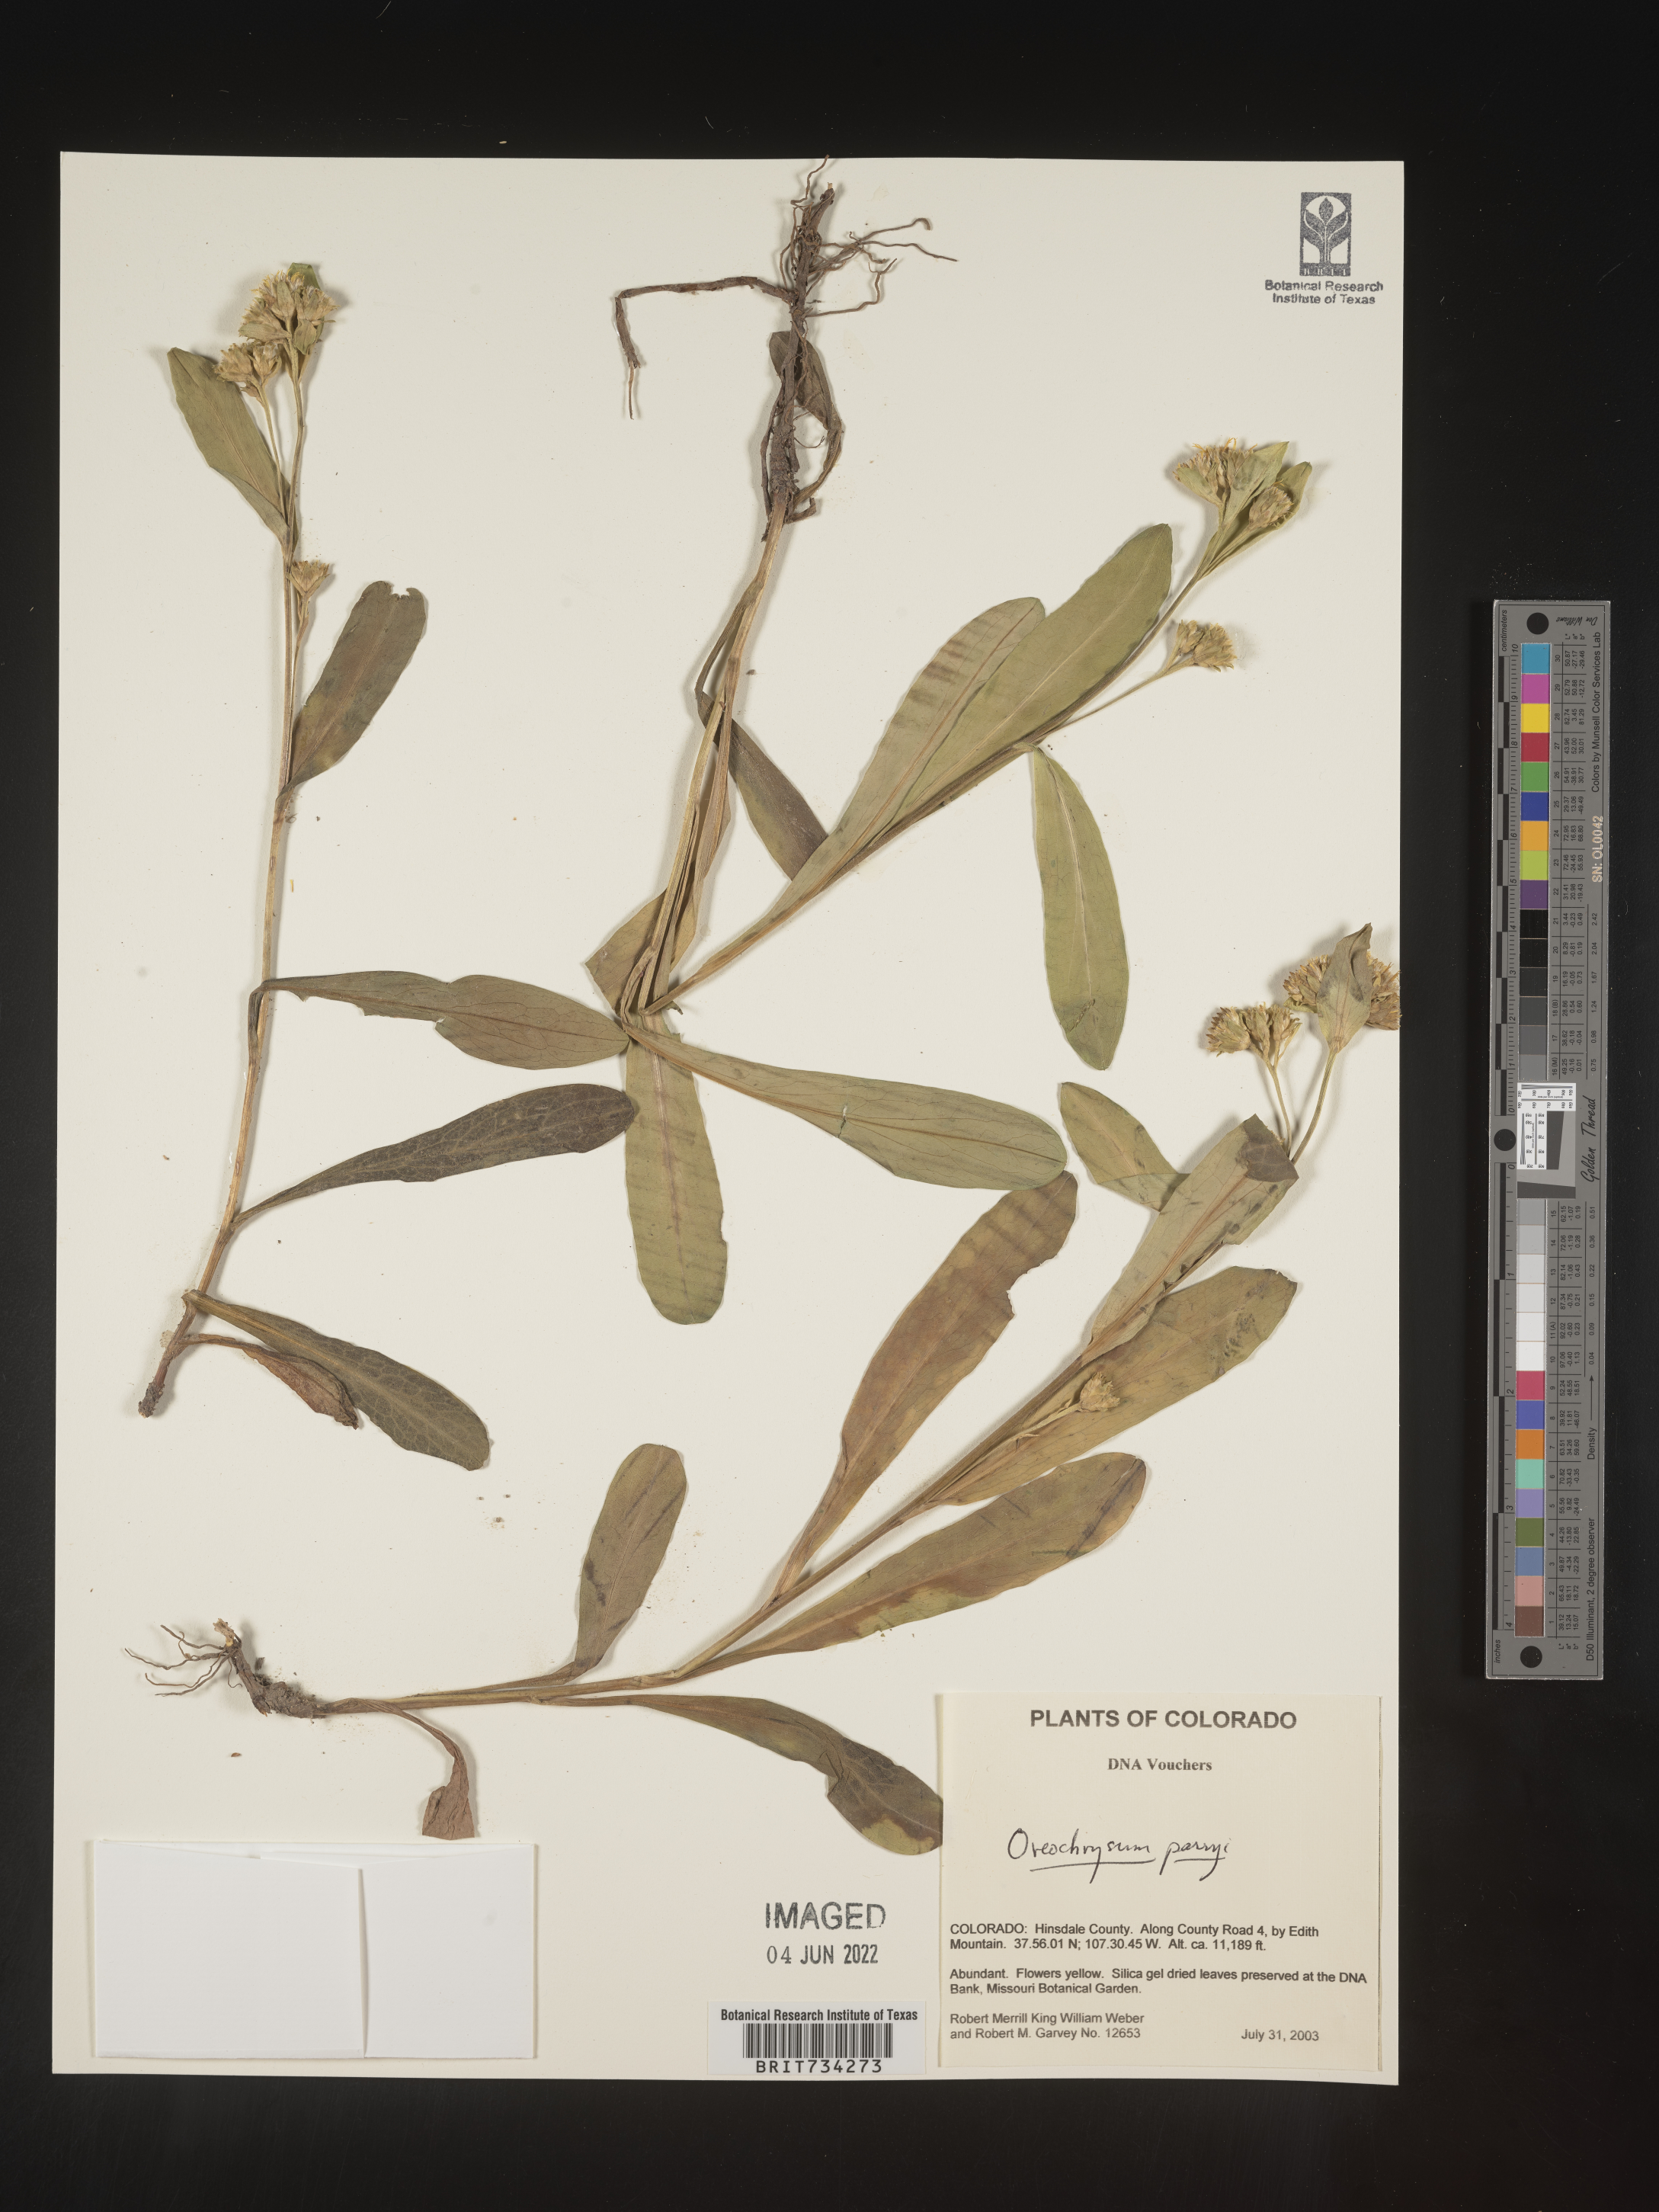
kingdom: Plantae
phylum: Tracheophyta
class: Magnoliopsida
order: Asterales
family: Asteraceae
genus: Oreochrysum
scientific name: Oreochrysum parryi
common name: Parry's goldenweed
